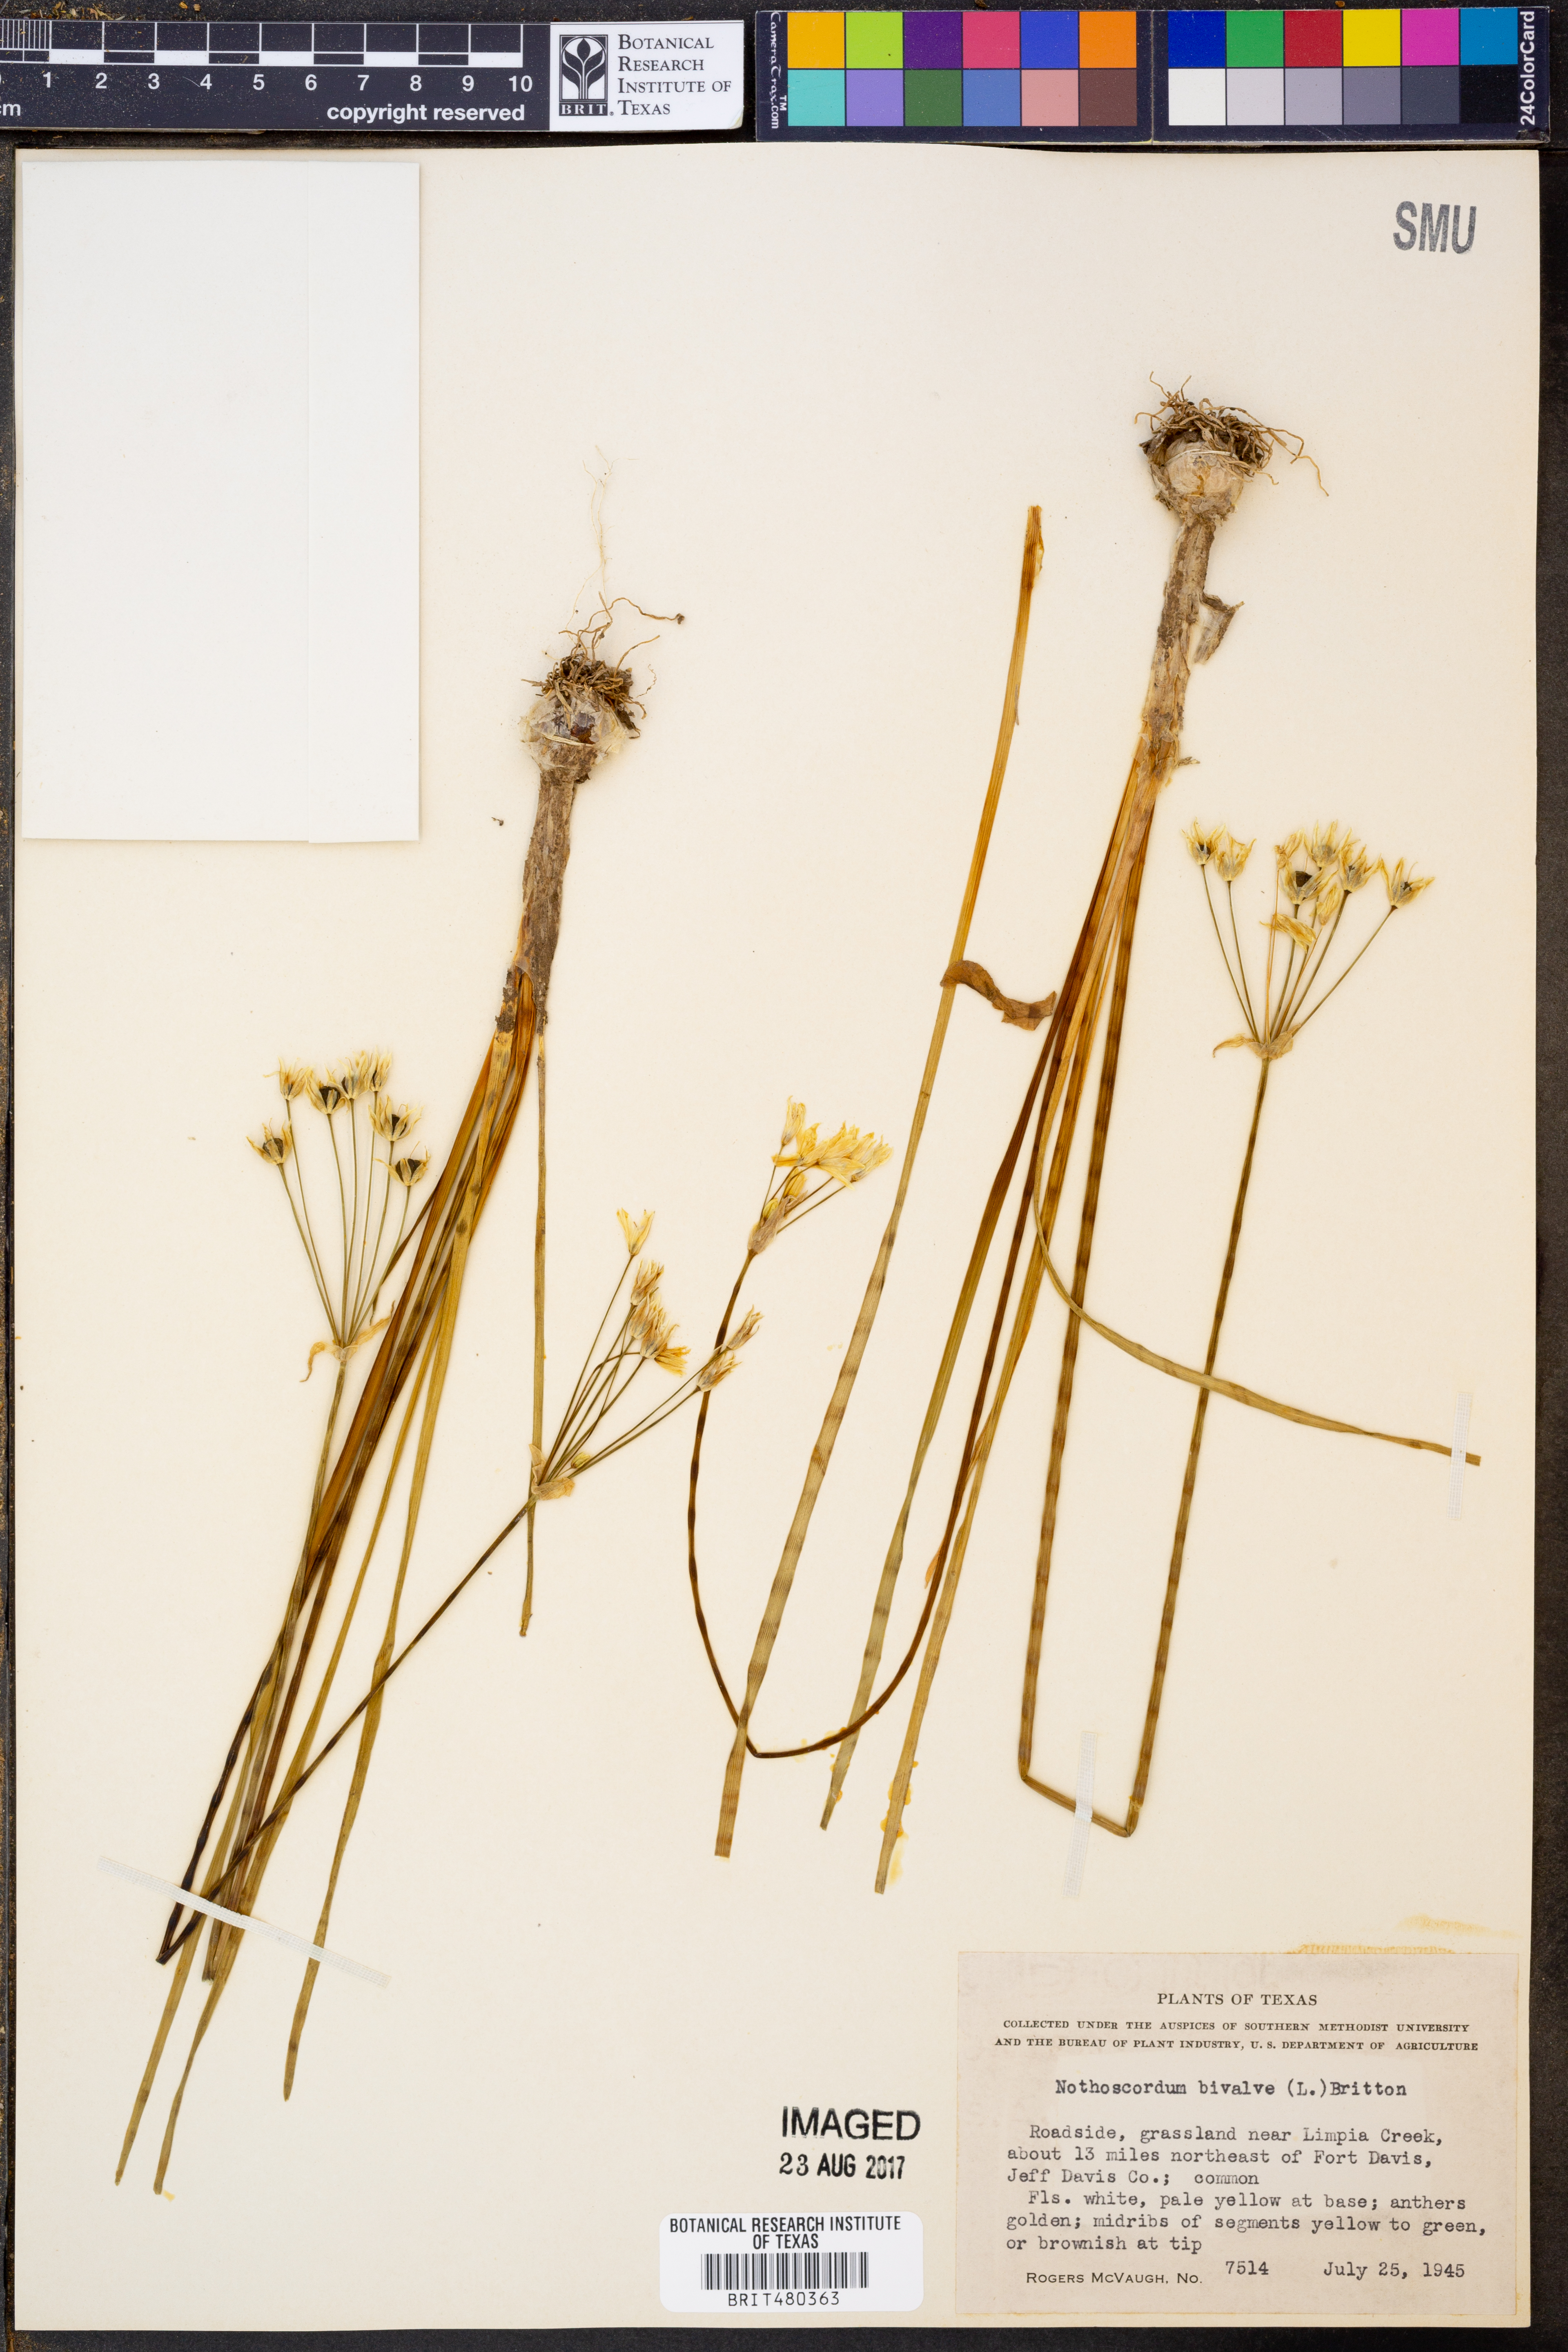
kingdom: Plantae
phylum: Tracheophyta
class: Liliopsida
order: Asparagales
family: Amaryllidaceae
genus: Nothoscordum
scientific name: Nothoscordum bivalve
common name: Crow-poison
